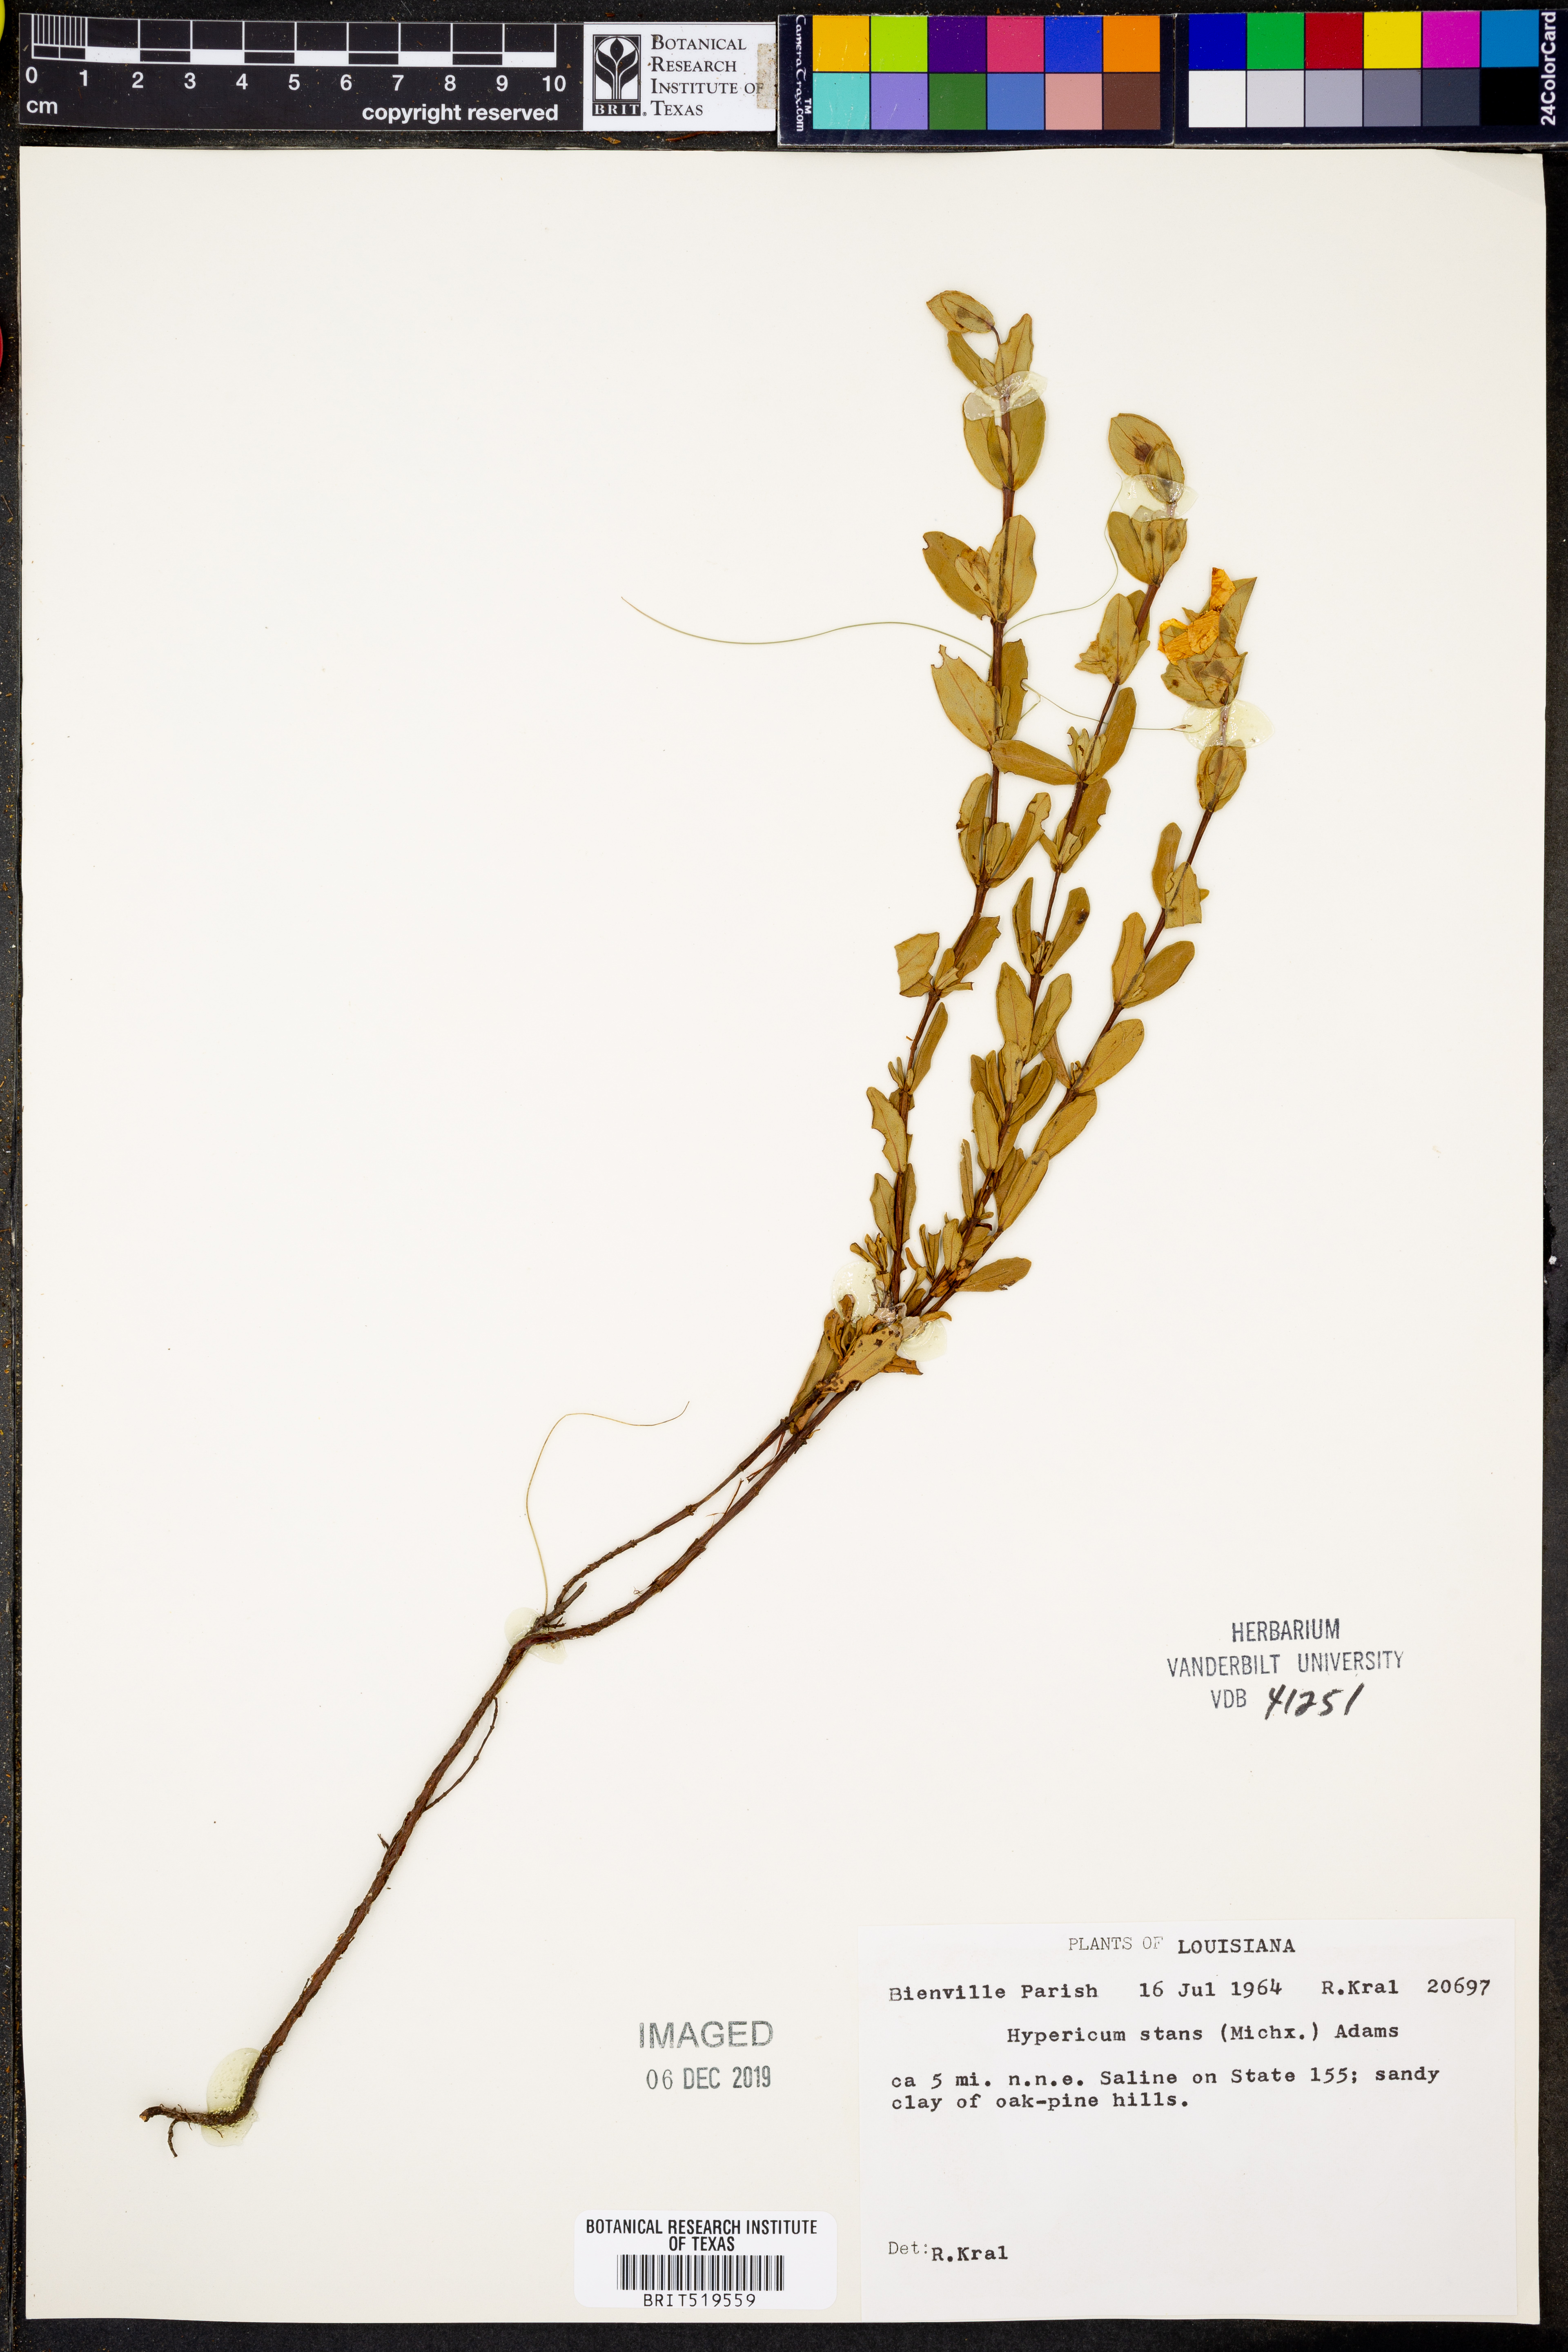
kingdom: Plantae
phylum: Tracheophyta
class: Magnoliopsida
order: Malpighiales
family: Hypericaceae
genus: Hypericum
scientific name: Hypericum crux-andreae
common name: St.-peter's-wort
